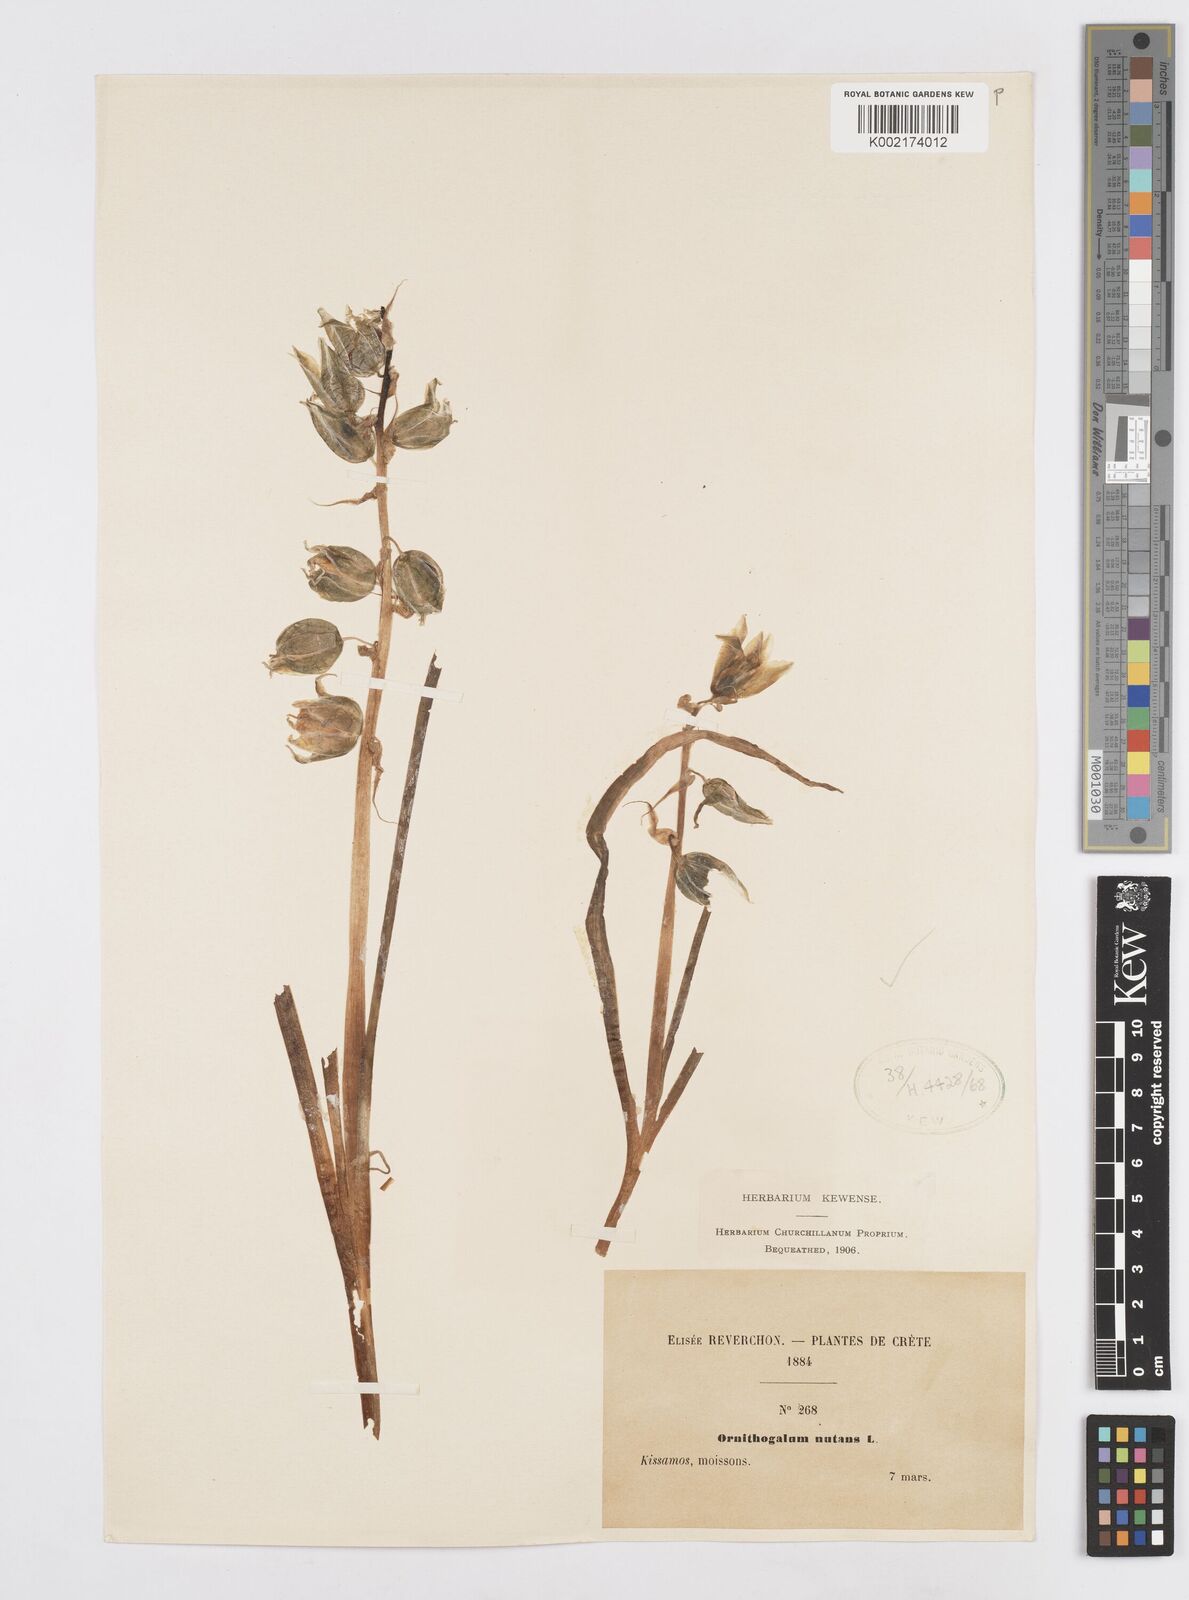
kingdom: Plantae
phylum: Tracheophyta
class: Liliopsida
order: Asparagales
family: Asparagaceae
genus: Ornithogalum
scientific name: Ornithogalum nutans
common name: Drooping star-of-bethlehem
